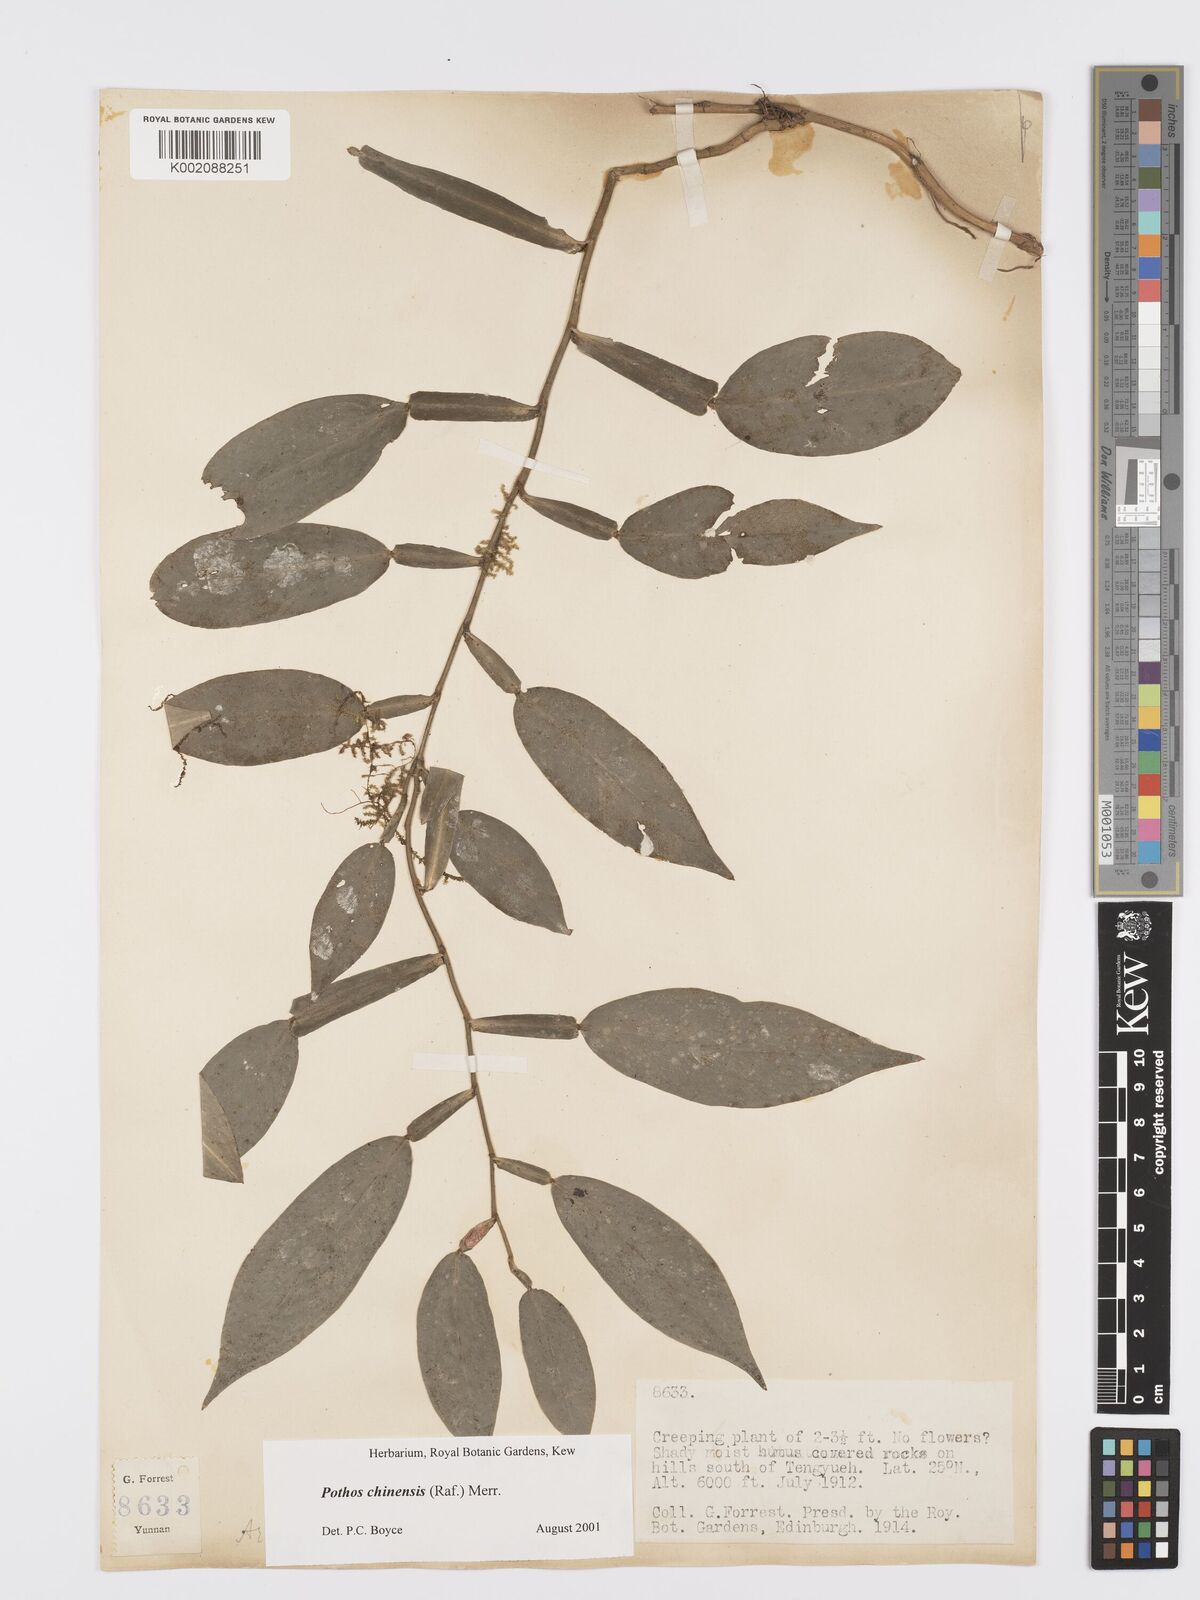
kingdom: Plantae
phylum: Tracheophyta
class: Liliopsida
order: Alismatales
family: Araceae
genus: Pothos
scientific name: Pothos chinensis
